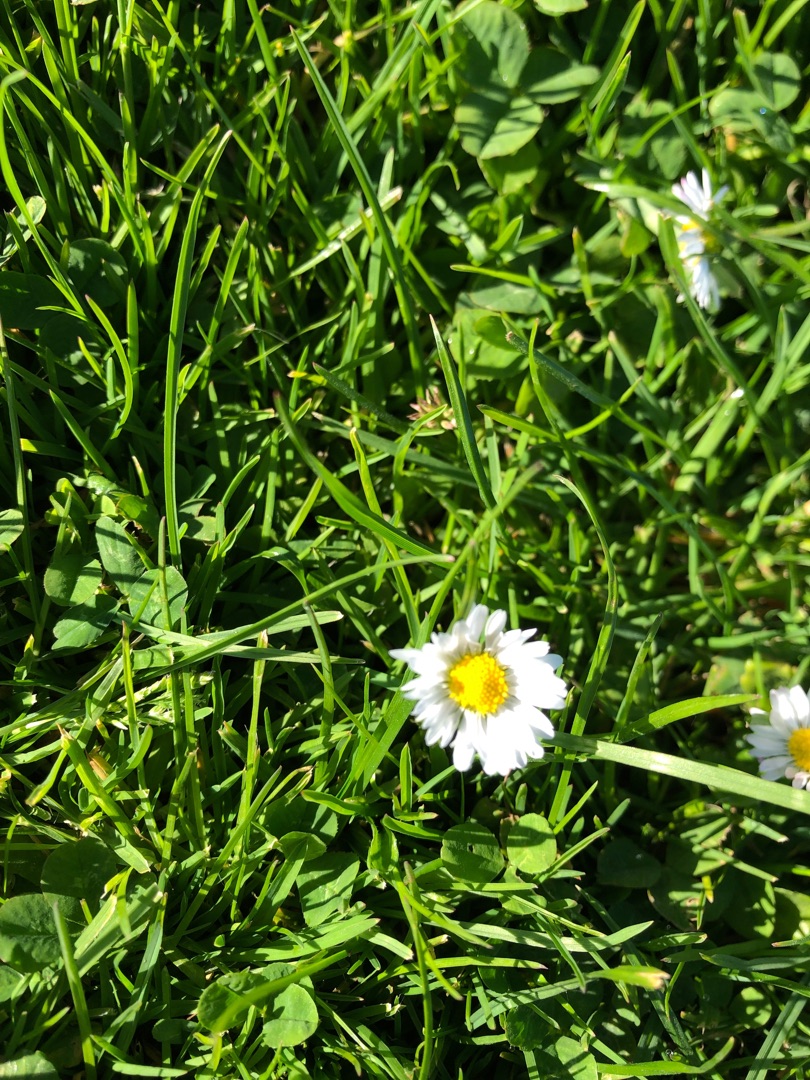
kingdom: Plantae
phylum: Tracheophyta
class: Magnoliopsida
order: Asterales
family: Asteraceae
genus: Bellis
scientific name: Bellis perennis
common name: Tusindfryd
